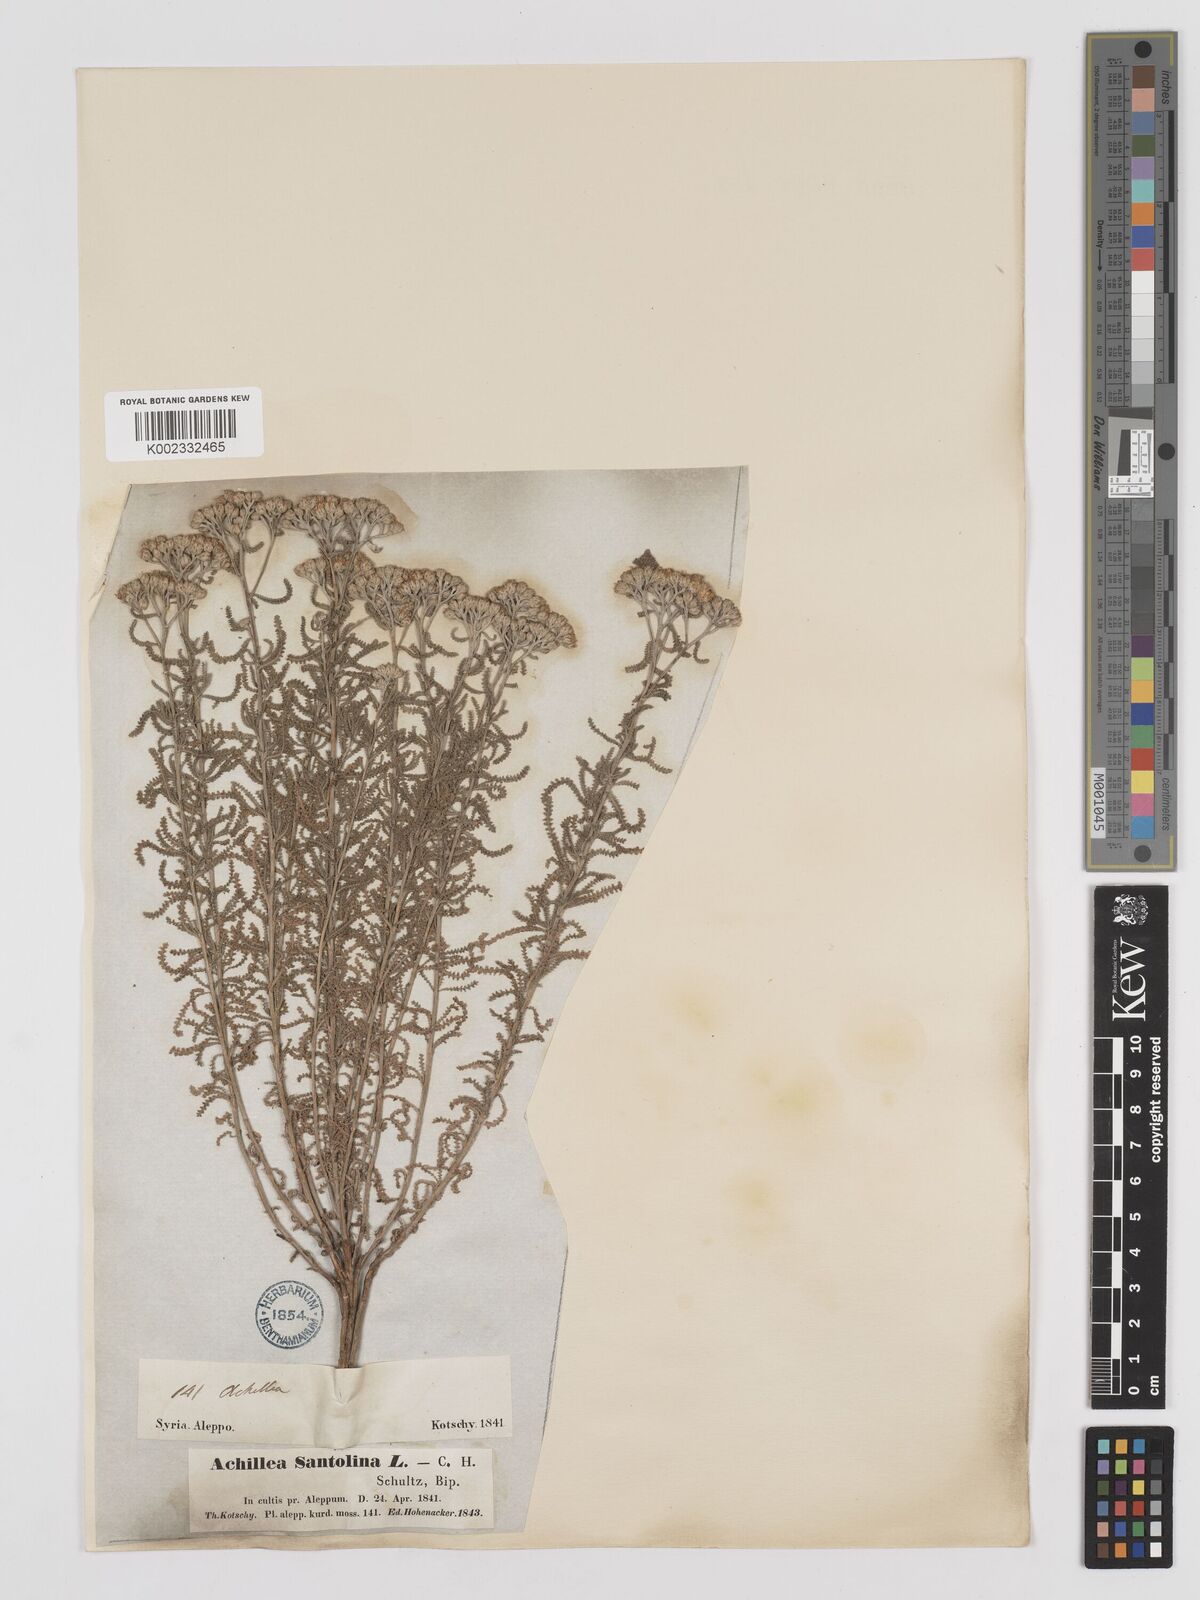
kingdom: Plantae
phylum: Tracheophyta
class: Magnoliopsida
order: Asterales
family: Asteraceae
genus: Achillea
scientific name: Achillea tenuifolia
